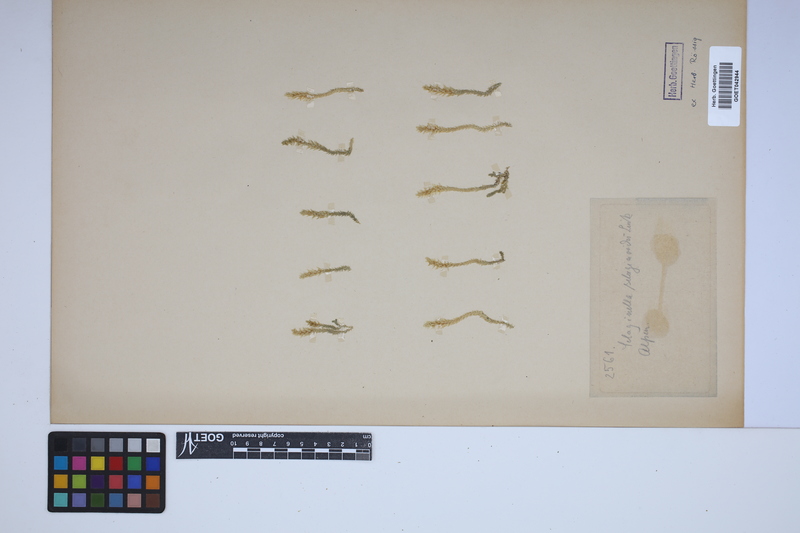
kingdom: Plantae
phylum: Tracheophyta
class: Lycopodiopsida
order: Selaginellales
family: Selaginellaceae
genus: Selaginella
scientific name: Selaginella selaginoides
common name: Prickly mountain-moss
